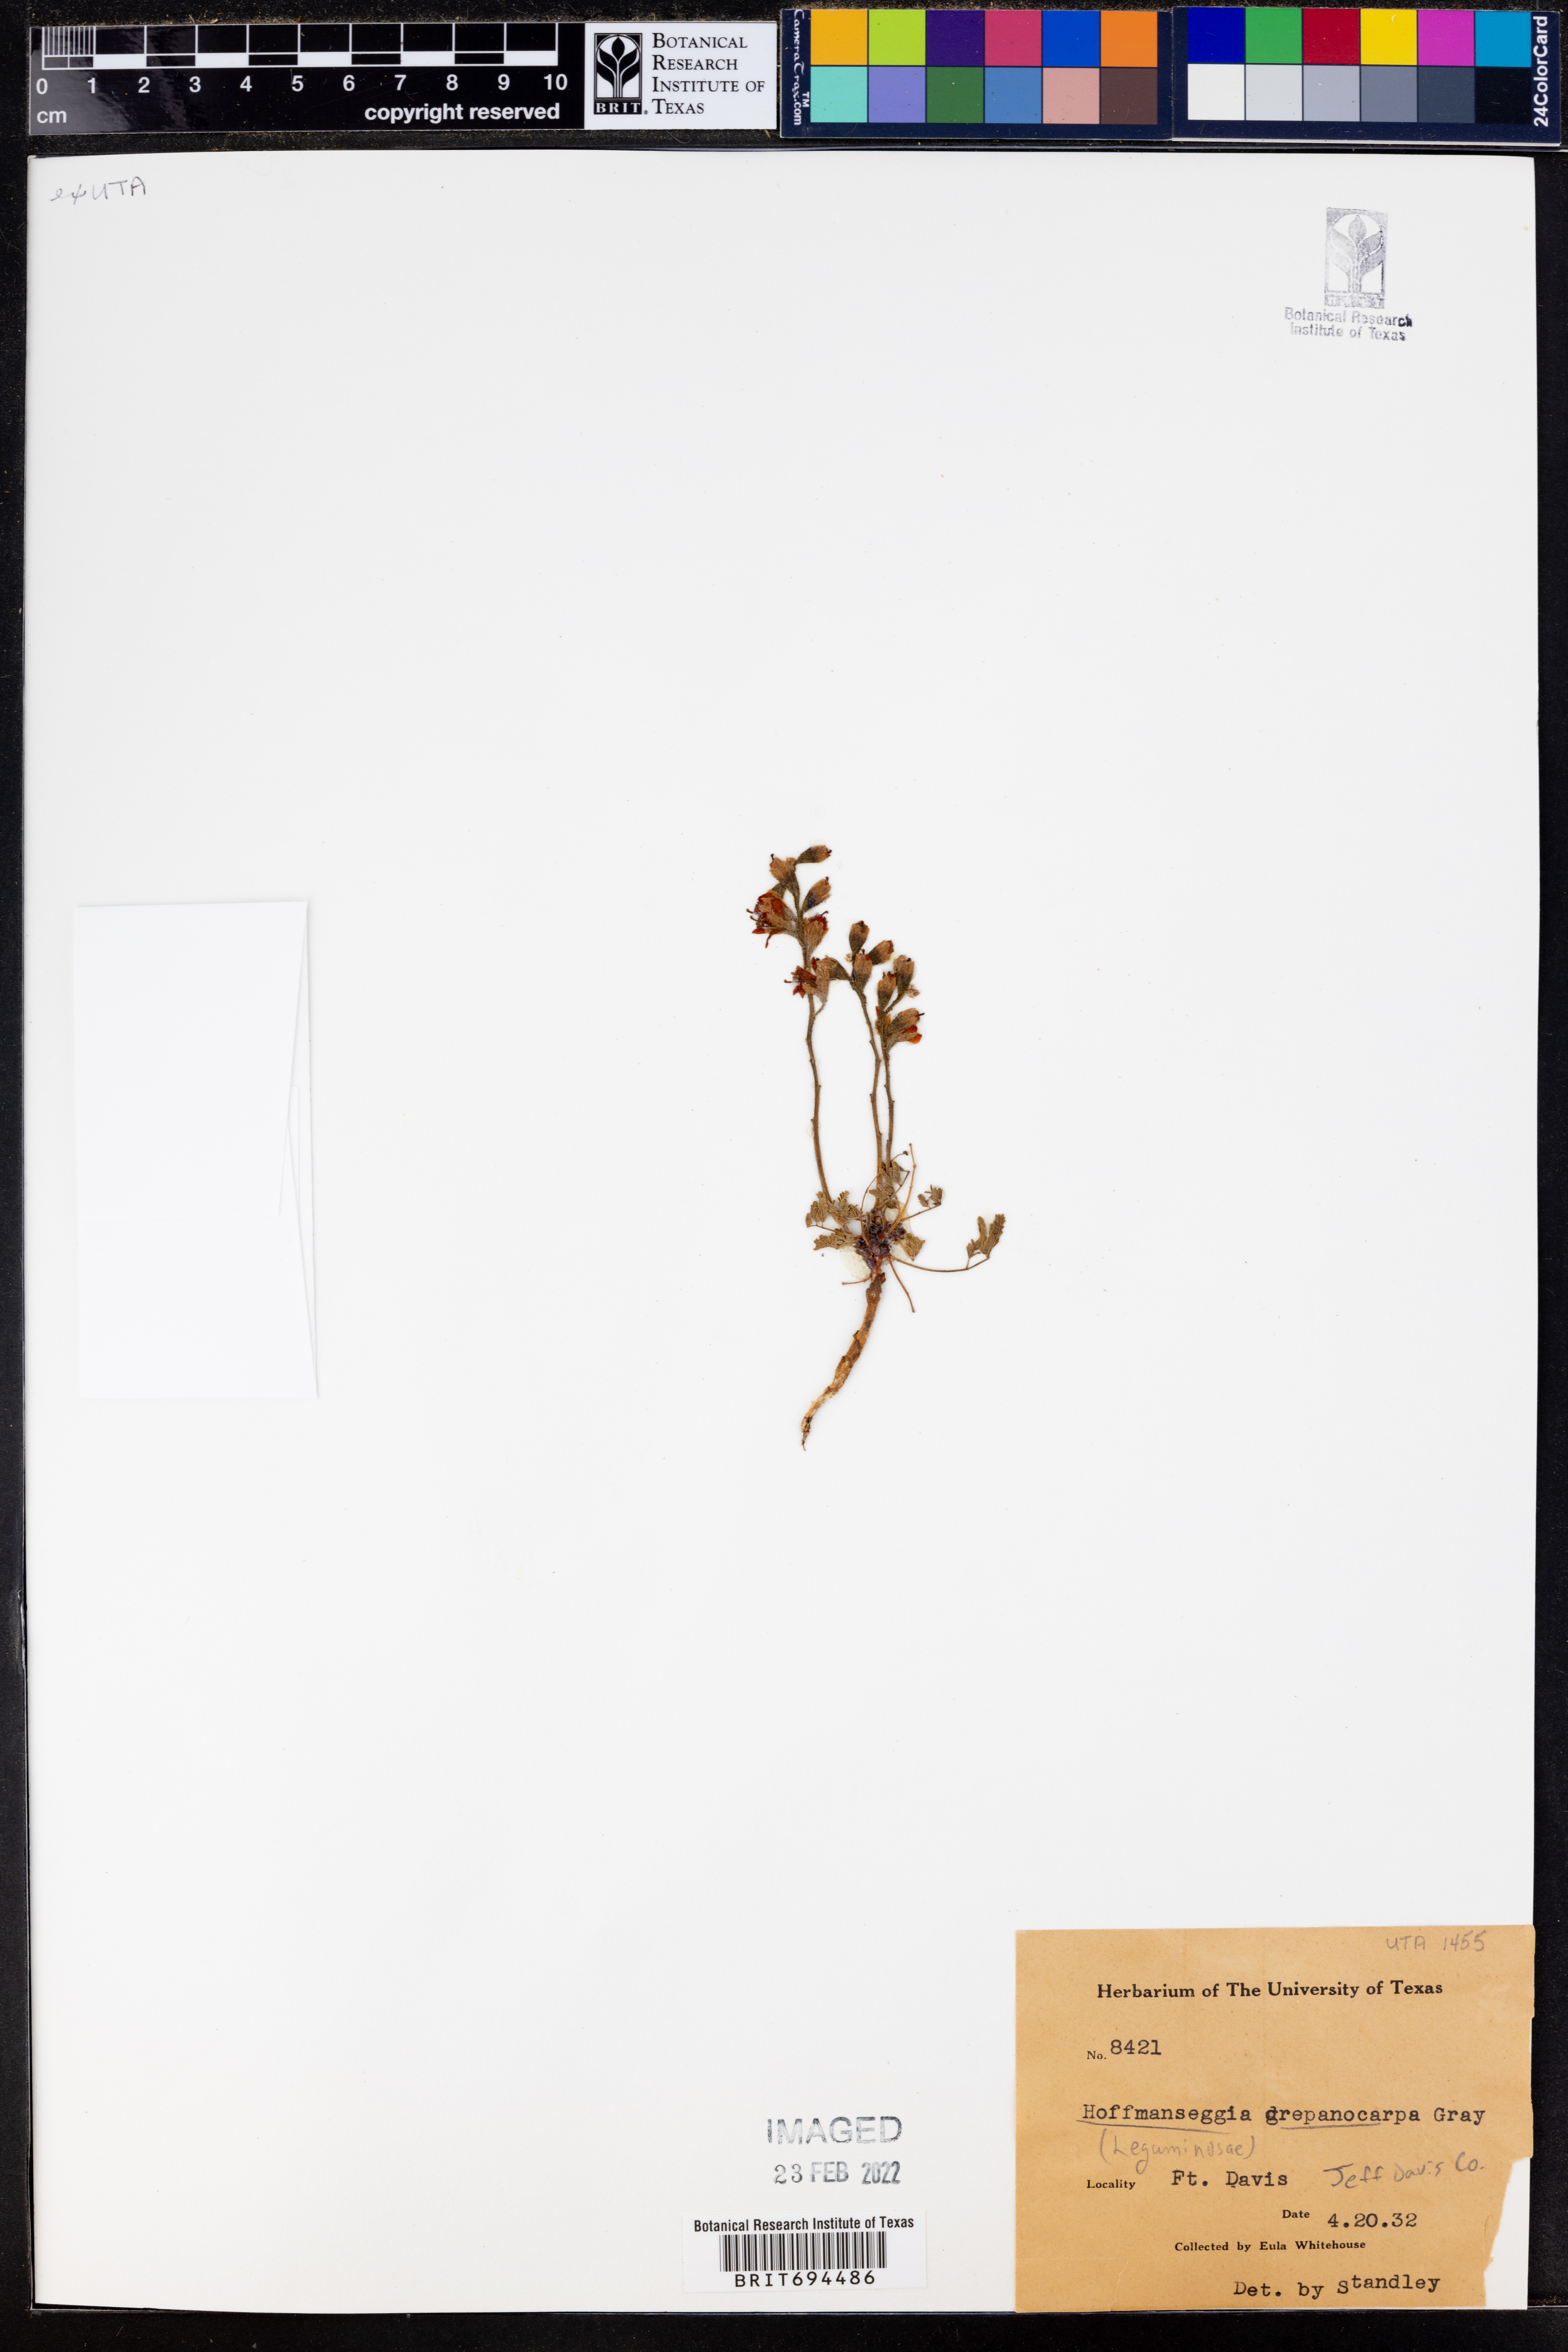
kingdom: Plantae
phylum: Tracheophyta
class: Magnoliopsida
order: Fabales
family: Fabaceae
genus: Hoffmannseggia
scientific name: Hoffmannseggia drepanocarpa
